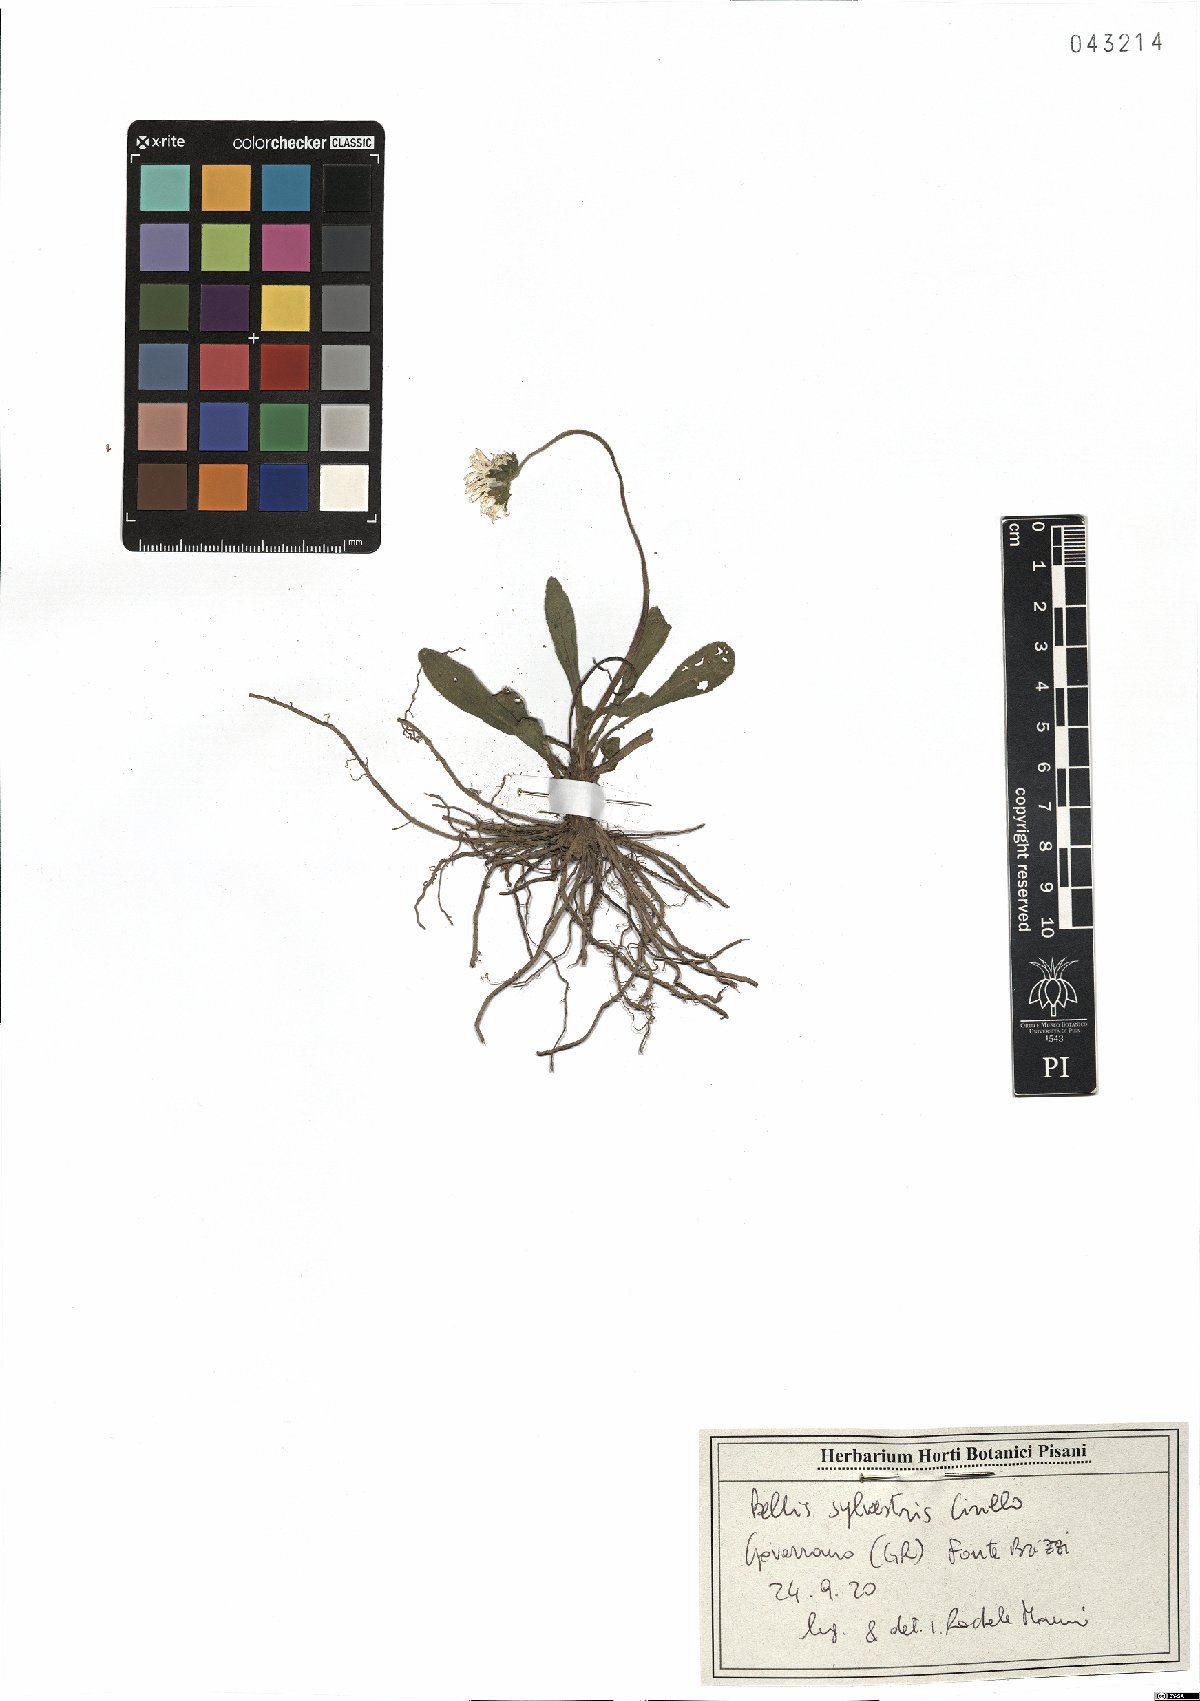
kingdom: Plantae
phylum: Tracheophyta
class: Magnoliopsida
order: Asterales
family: Asteraceae
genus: Bellis
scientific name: Bellis sylvestris
